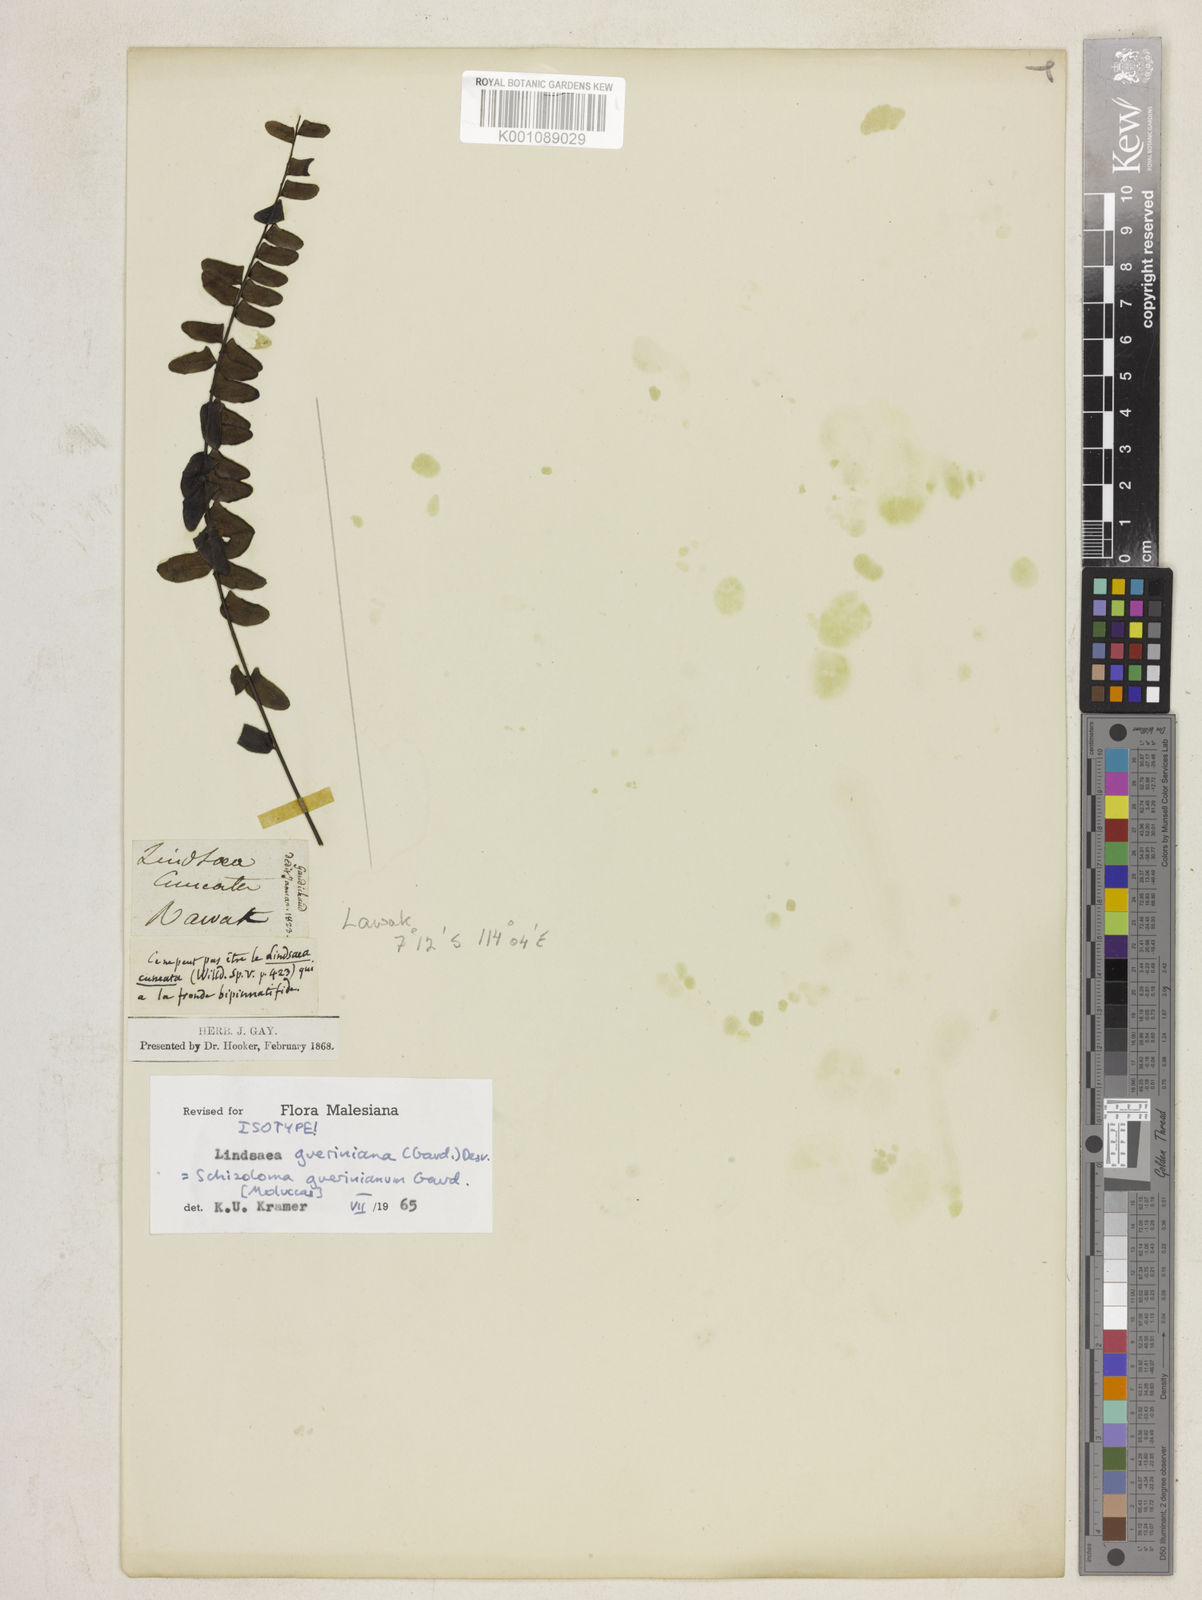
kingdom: Plantae
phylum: Tracheophyta
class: Polypodiopsida
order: Polypodiales
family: Lindsaeaceae
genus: Lindsaea
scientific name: Lindsaea gueriniana
